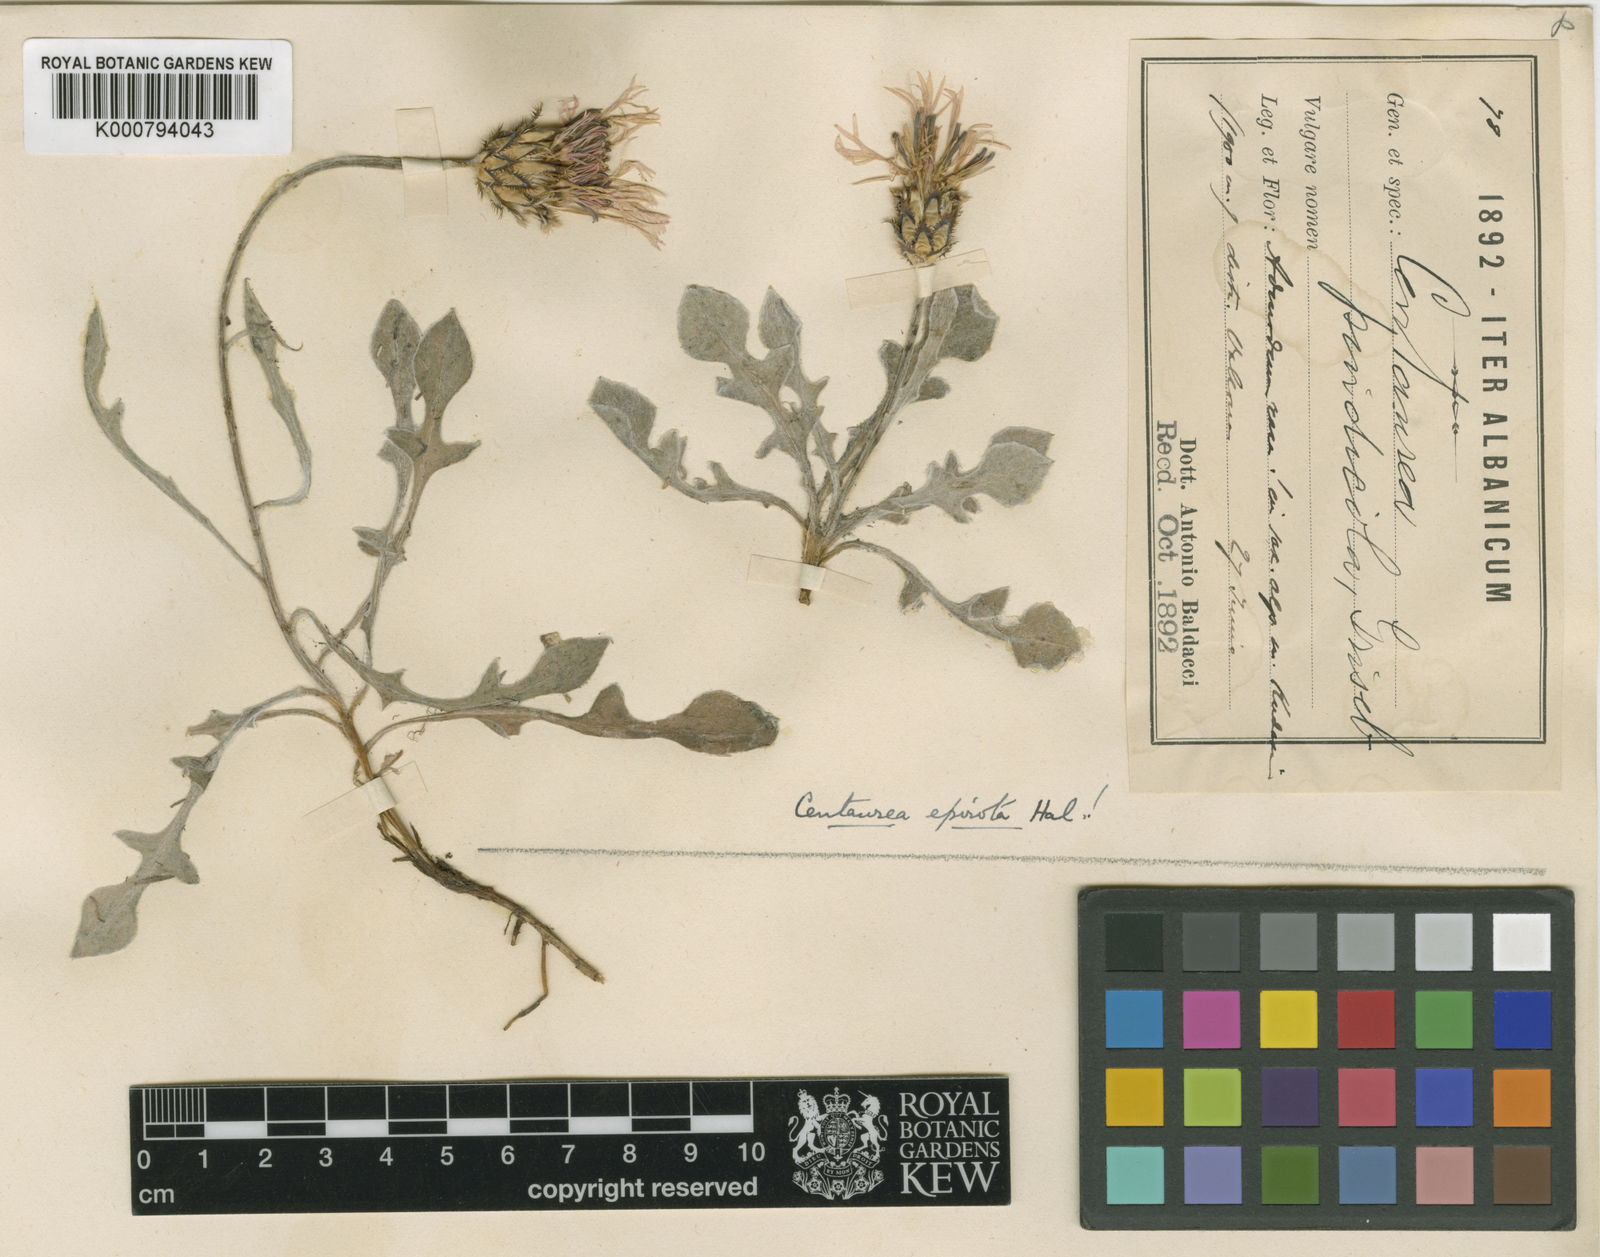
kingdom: Plantae
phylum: Tracheophyta
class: Magnoliopsida
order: Asterales
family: Asteraceae
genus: Centaurea
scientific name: Centaurea
